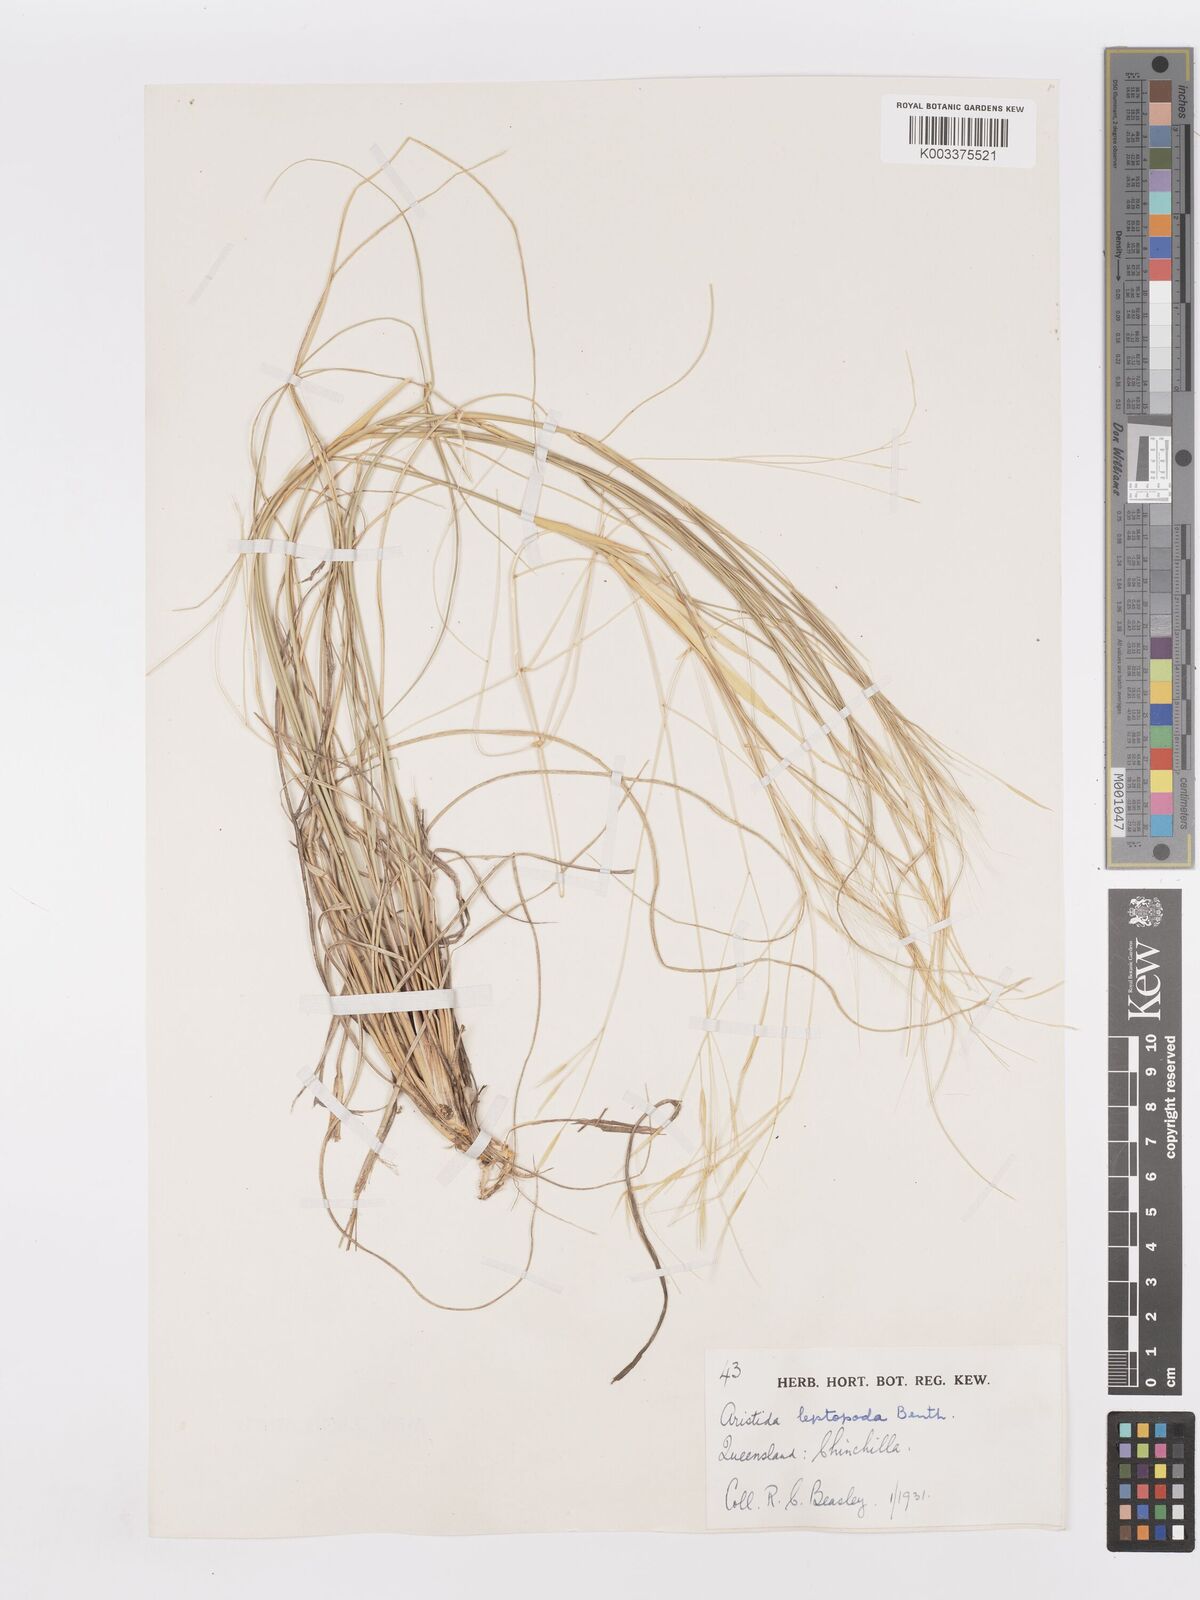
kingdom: Plantae
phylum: Tracheophyta
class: Liliopsida
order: Poales
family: Poaceae
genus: Aristida
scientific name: Aristida leptopoda
